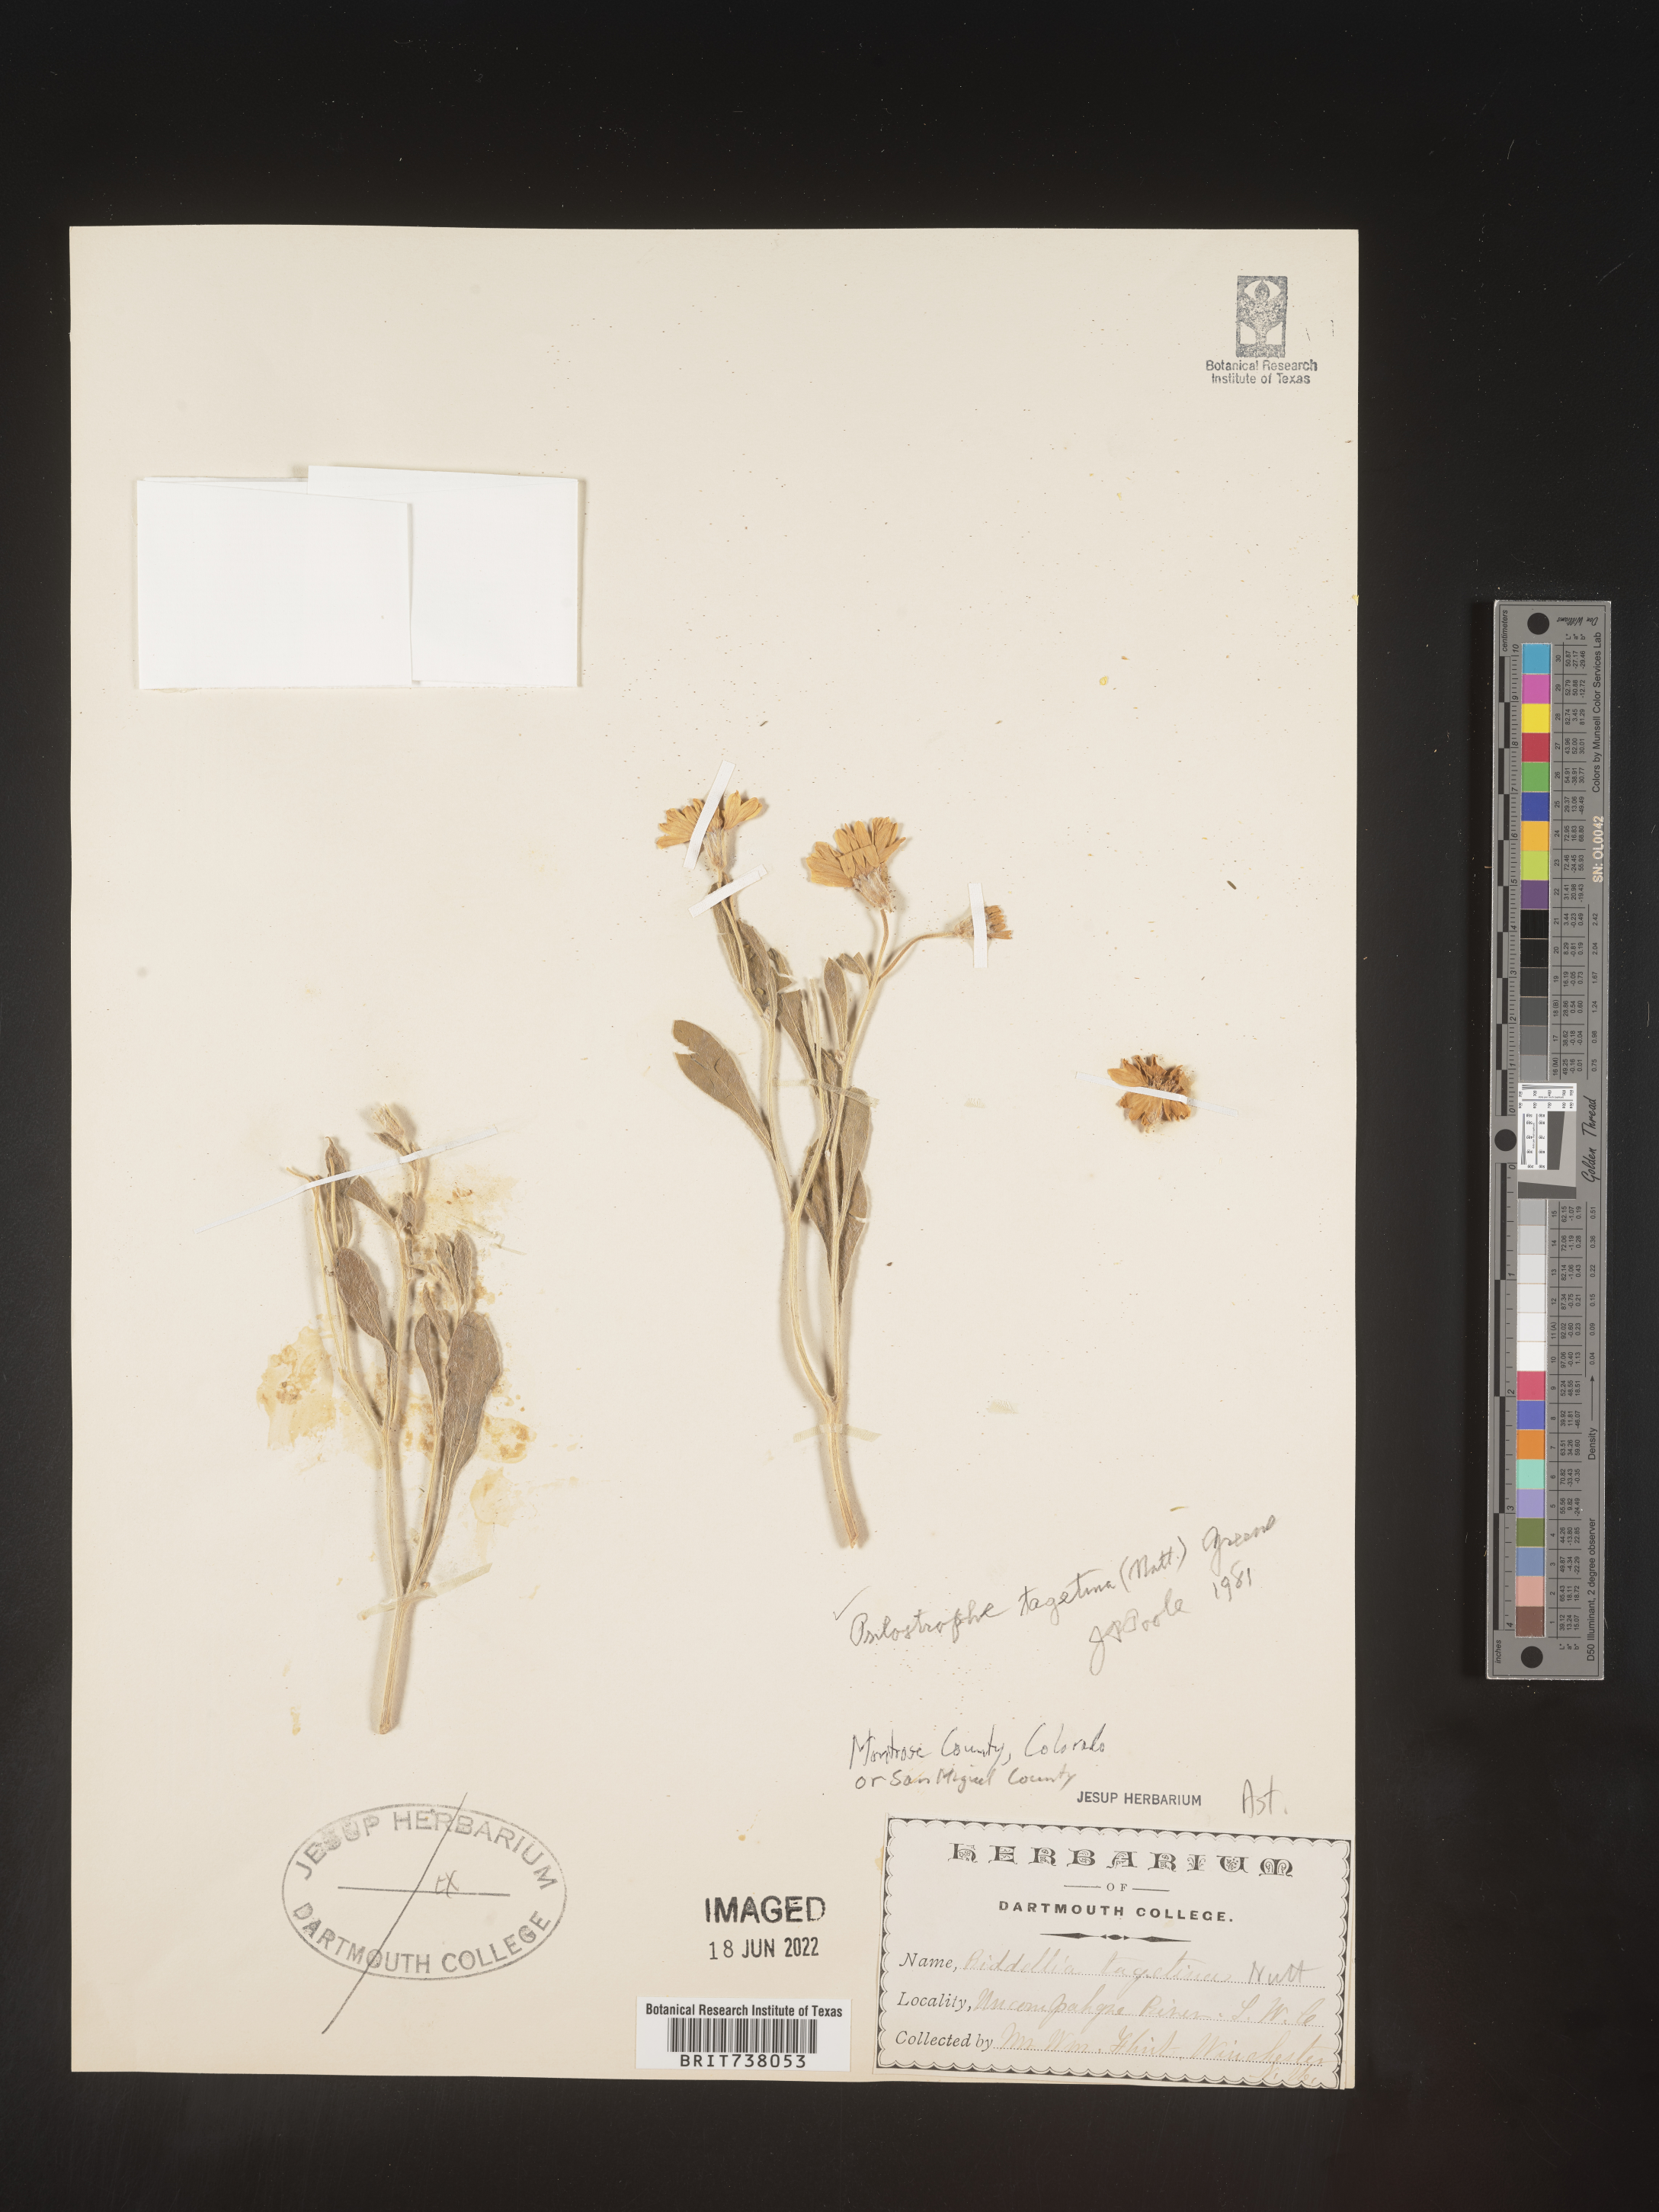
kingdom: Plantae
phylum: Tracheophyta
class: Magnoliopsida
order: Asterales
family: Asteraceae
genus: Psilostrophe
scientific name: Psilostrophe tagetina
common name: Marigold paper-flower
